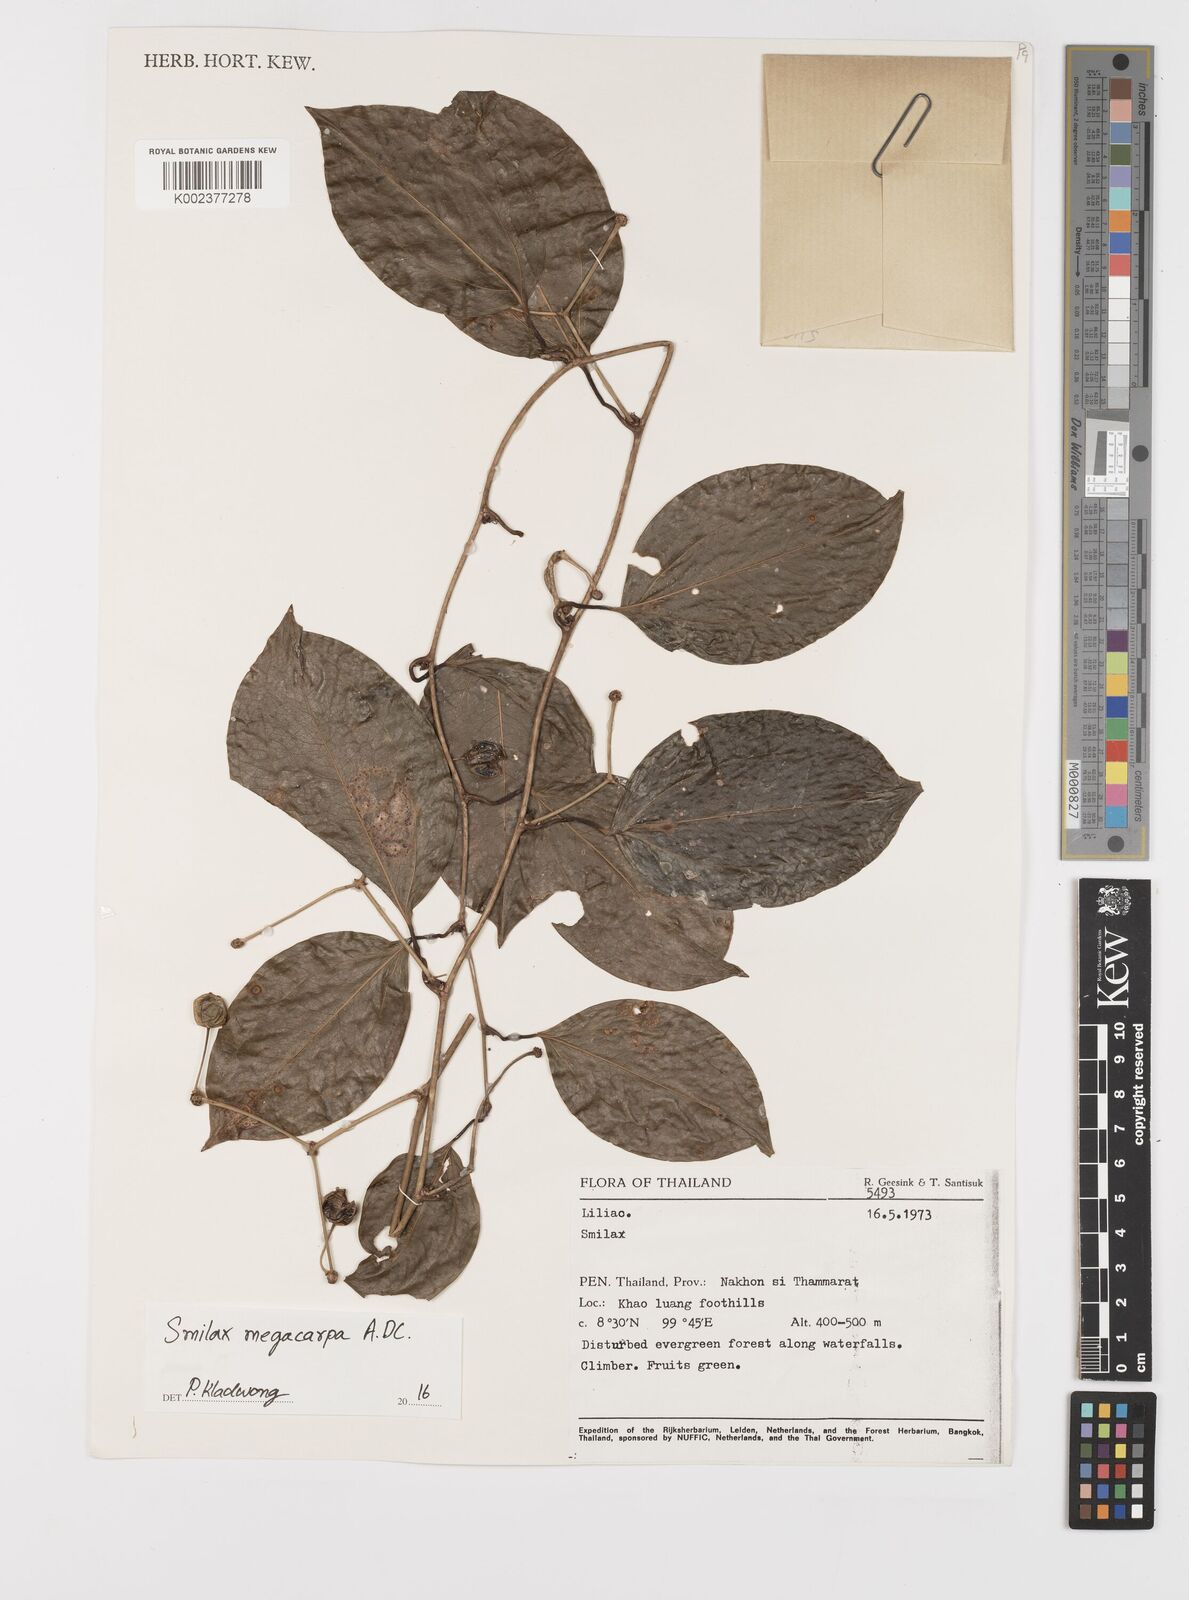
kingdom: Plantae
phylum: Tracheophyta
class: Liliopsida
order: Liliales
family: Smilacaceae
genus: Smilax
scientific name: Smilax megacarpa
